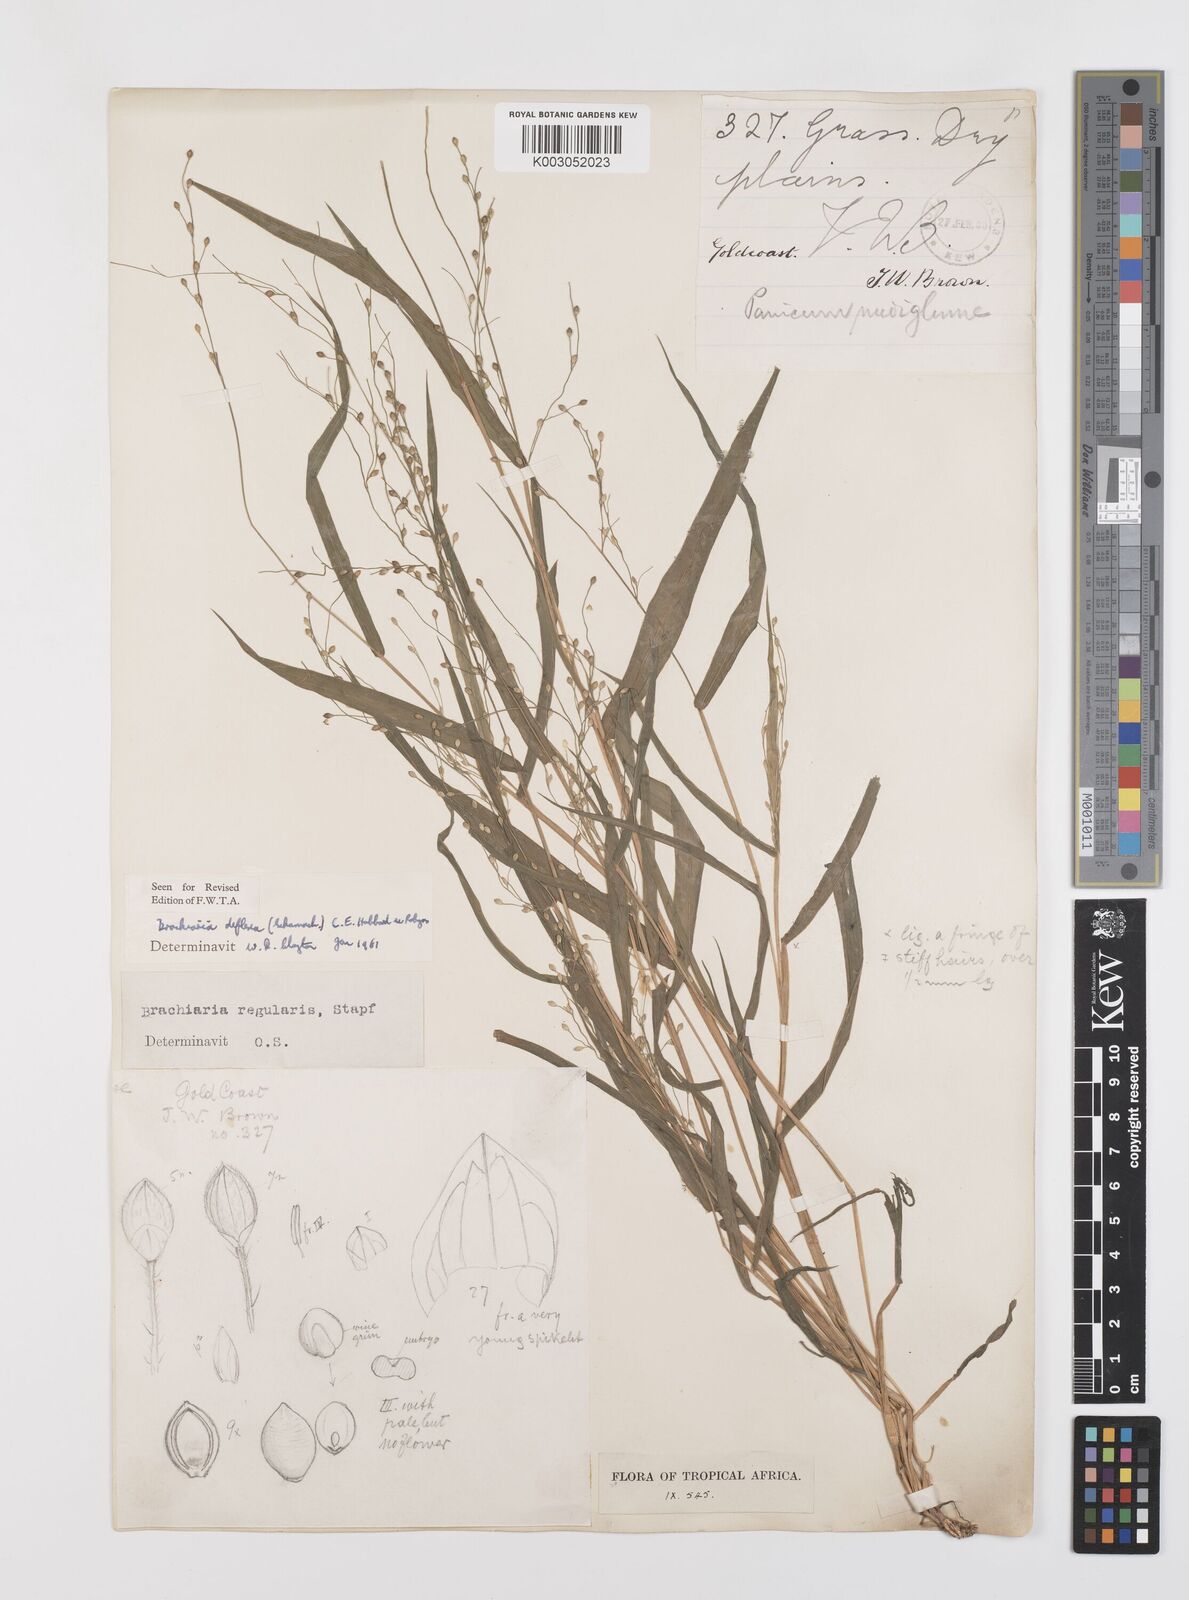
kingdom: Plantae
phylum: Tracheophyta
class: Liliopsida
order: Poales
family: Poaceae
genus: Urochloa
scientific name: Urochloa deflexa
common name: Guinea millet
